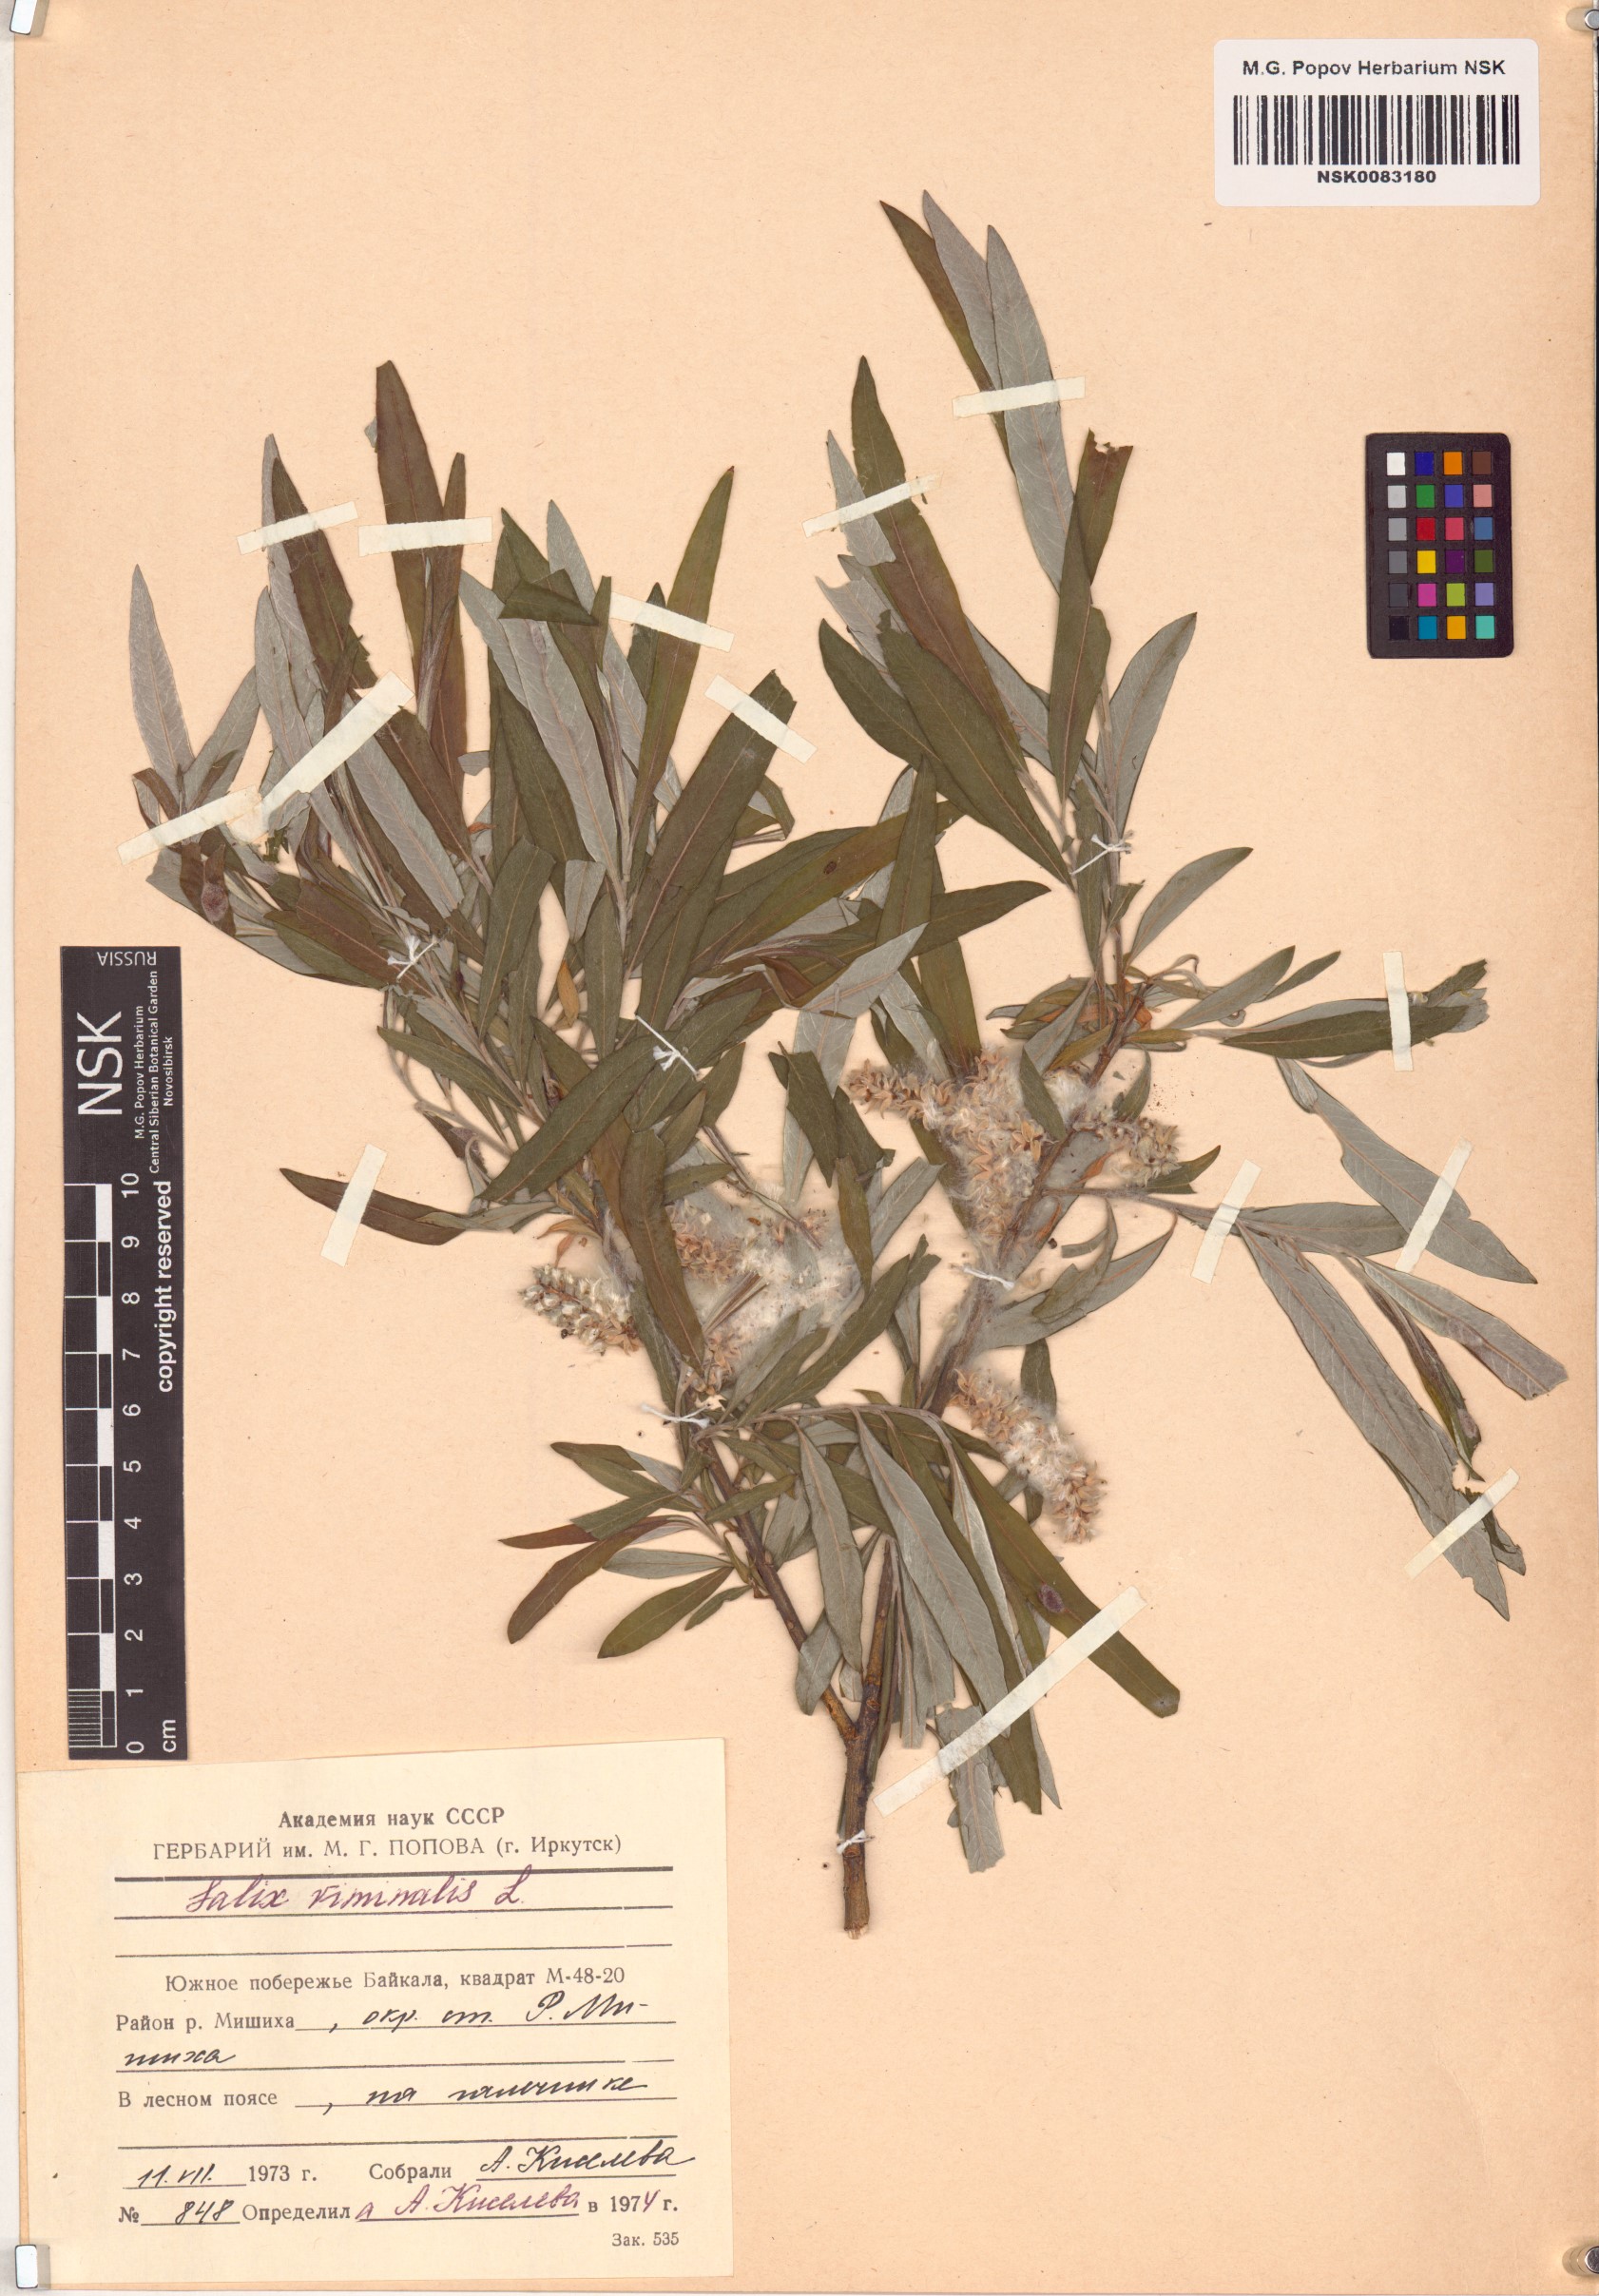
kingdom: Plantae
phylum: Tracheophyta
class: Magnoliopsida
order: Malpighiales
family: Salicaceae
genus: Salix
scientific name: Salix viminalis
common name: Osier
